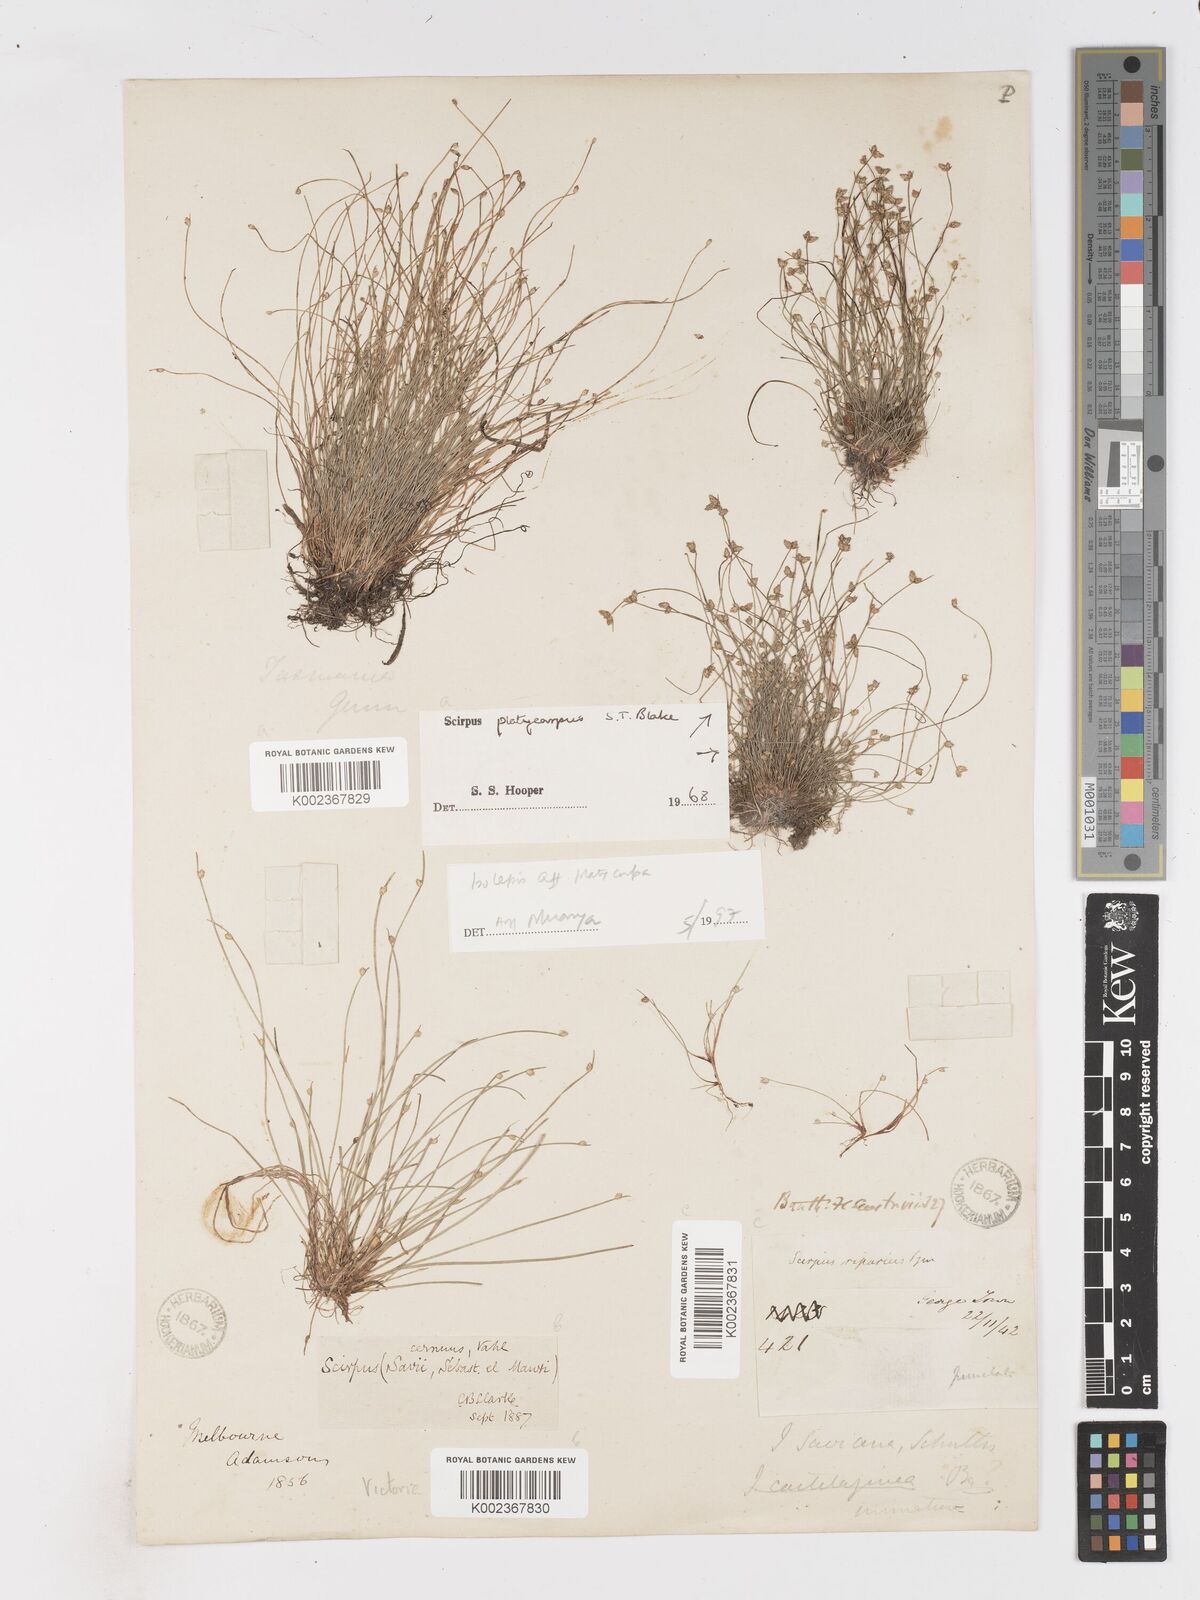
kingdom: Plantae
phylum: Tracheophyta
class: Liliopsida
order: Poales
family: Cyperaceae
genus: Isolepis
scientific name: Isolepis cernua
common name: Slender club-rush
